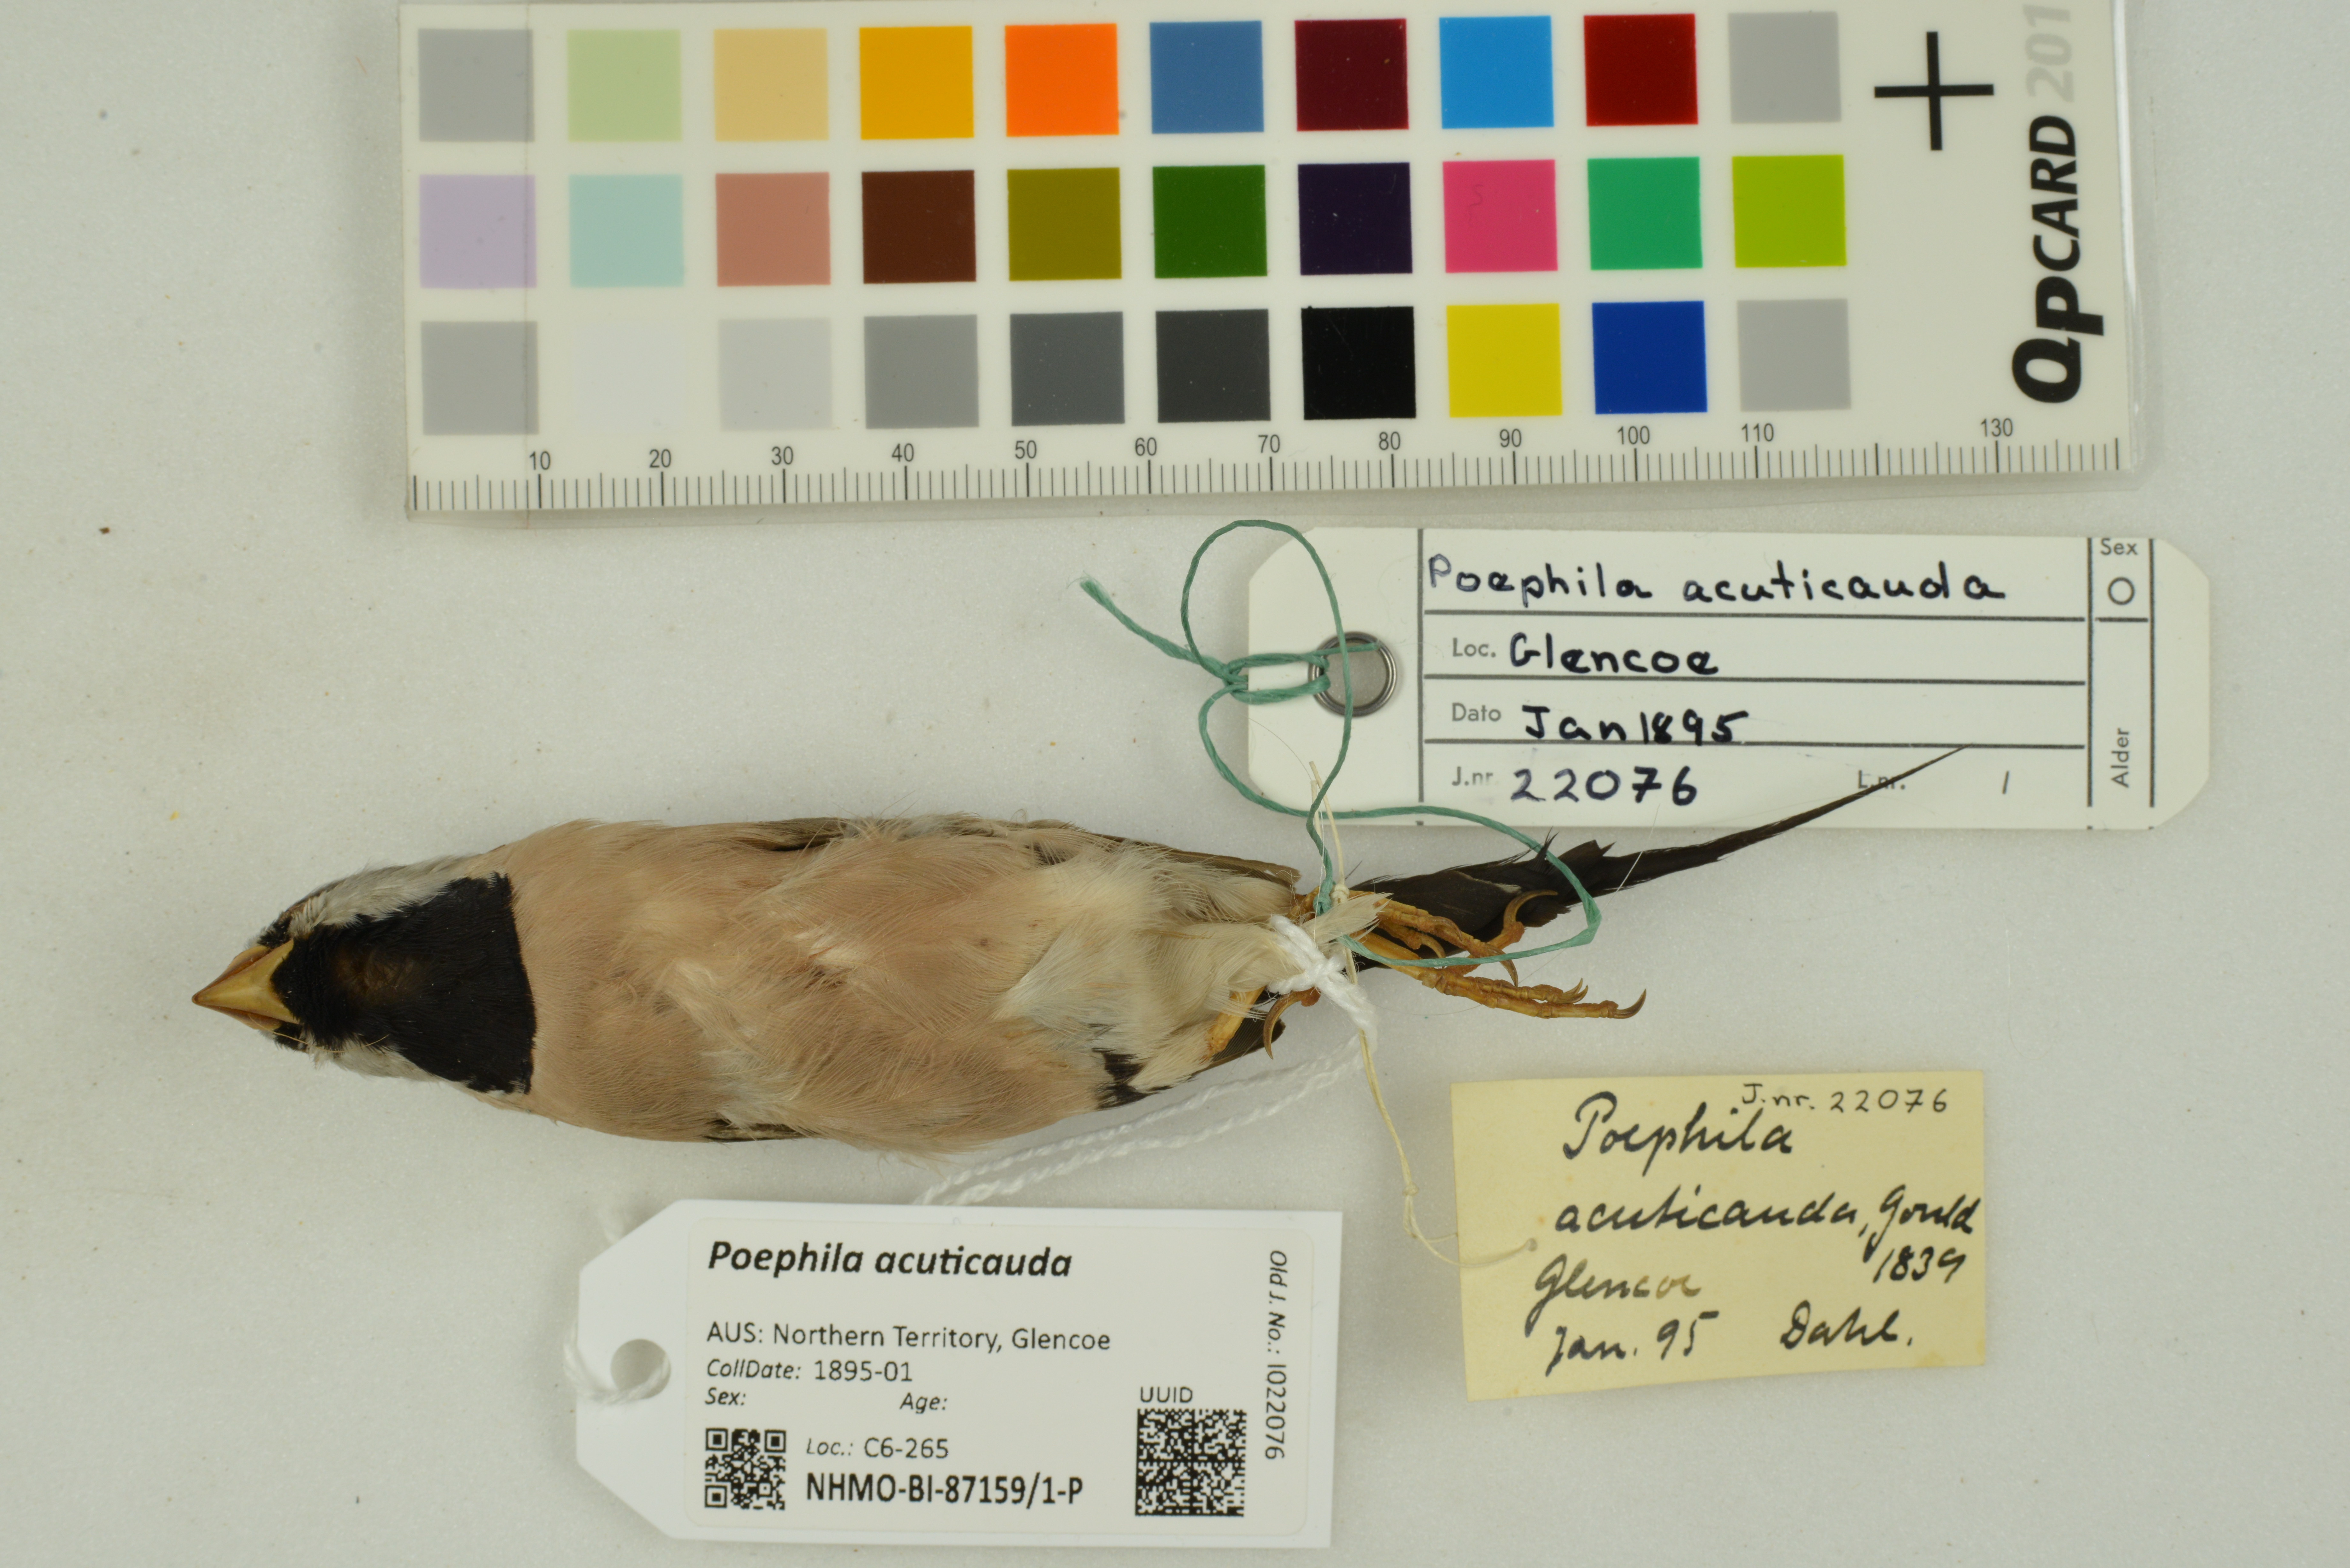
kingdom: Animalia
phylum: Chordata
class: Aves
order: Passeriformes
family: Estrildidae
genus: Poephila
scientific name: Poephila acuticauda
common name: Long-tailed finch
